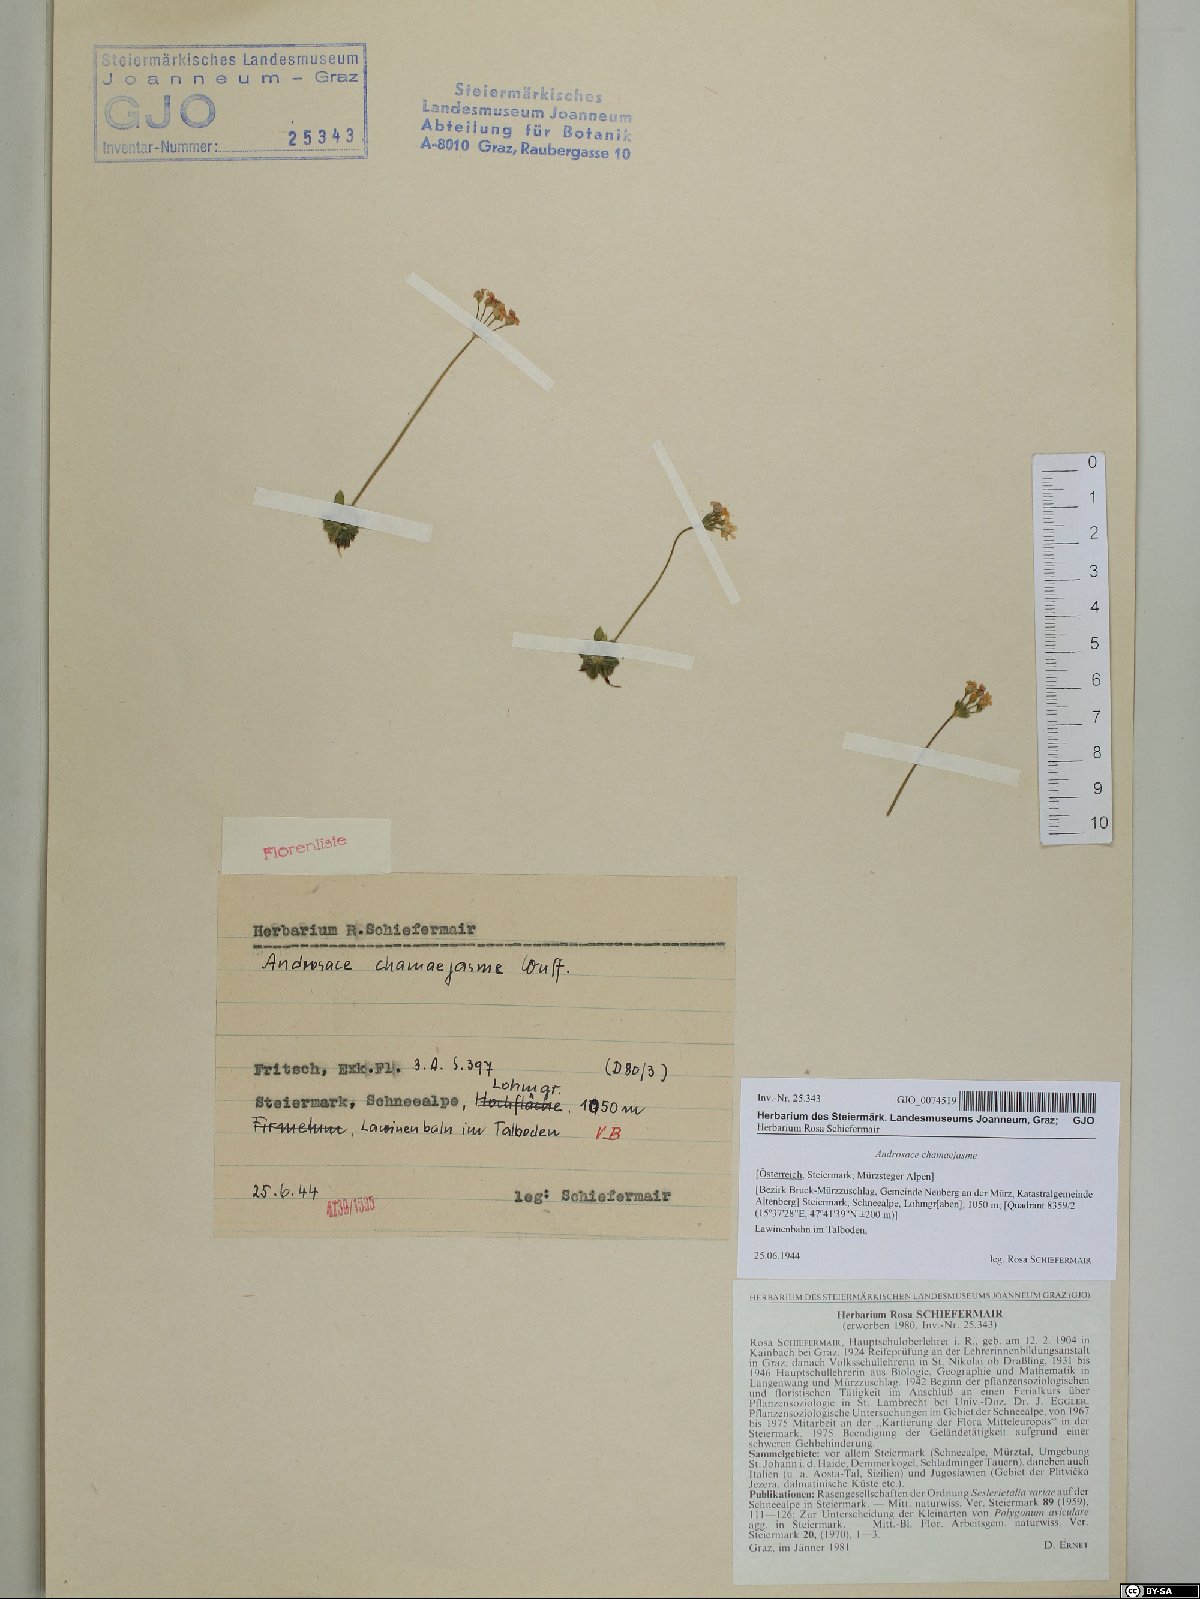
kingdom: Plantae
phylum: Tracheophyta
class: Magnoliopsida
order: Ericales
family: Primulaceae
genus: Androsace
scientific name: Androsace chamaejasme
